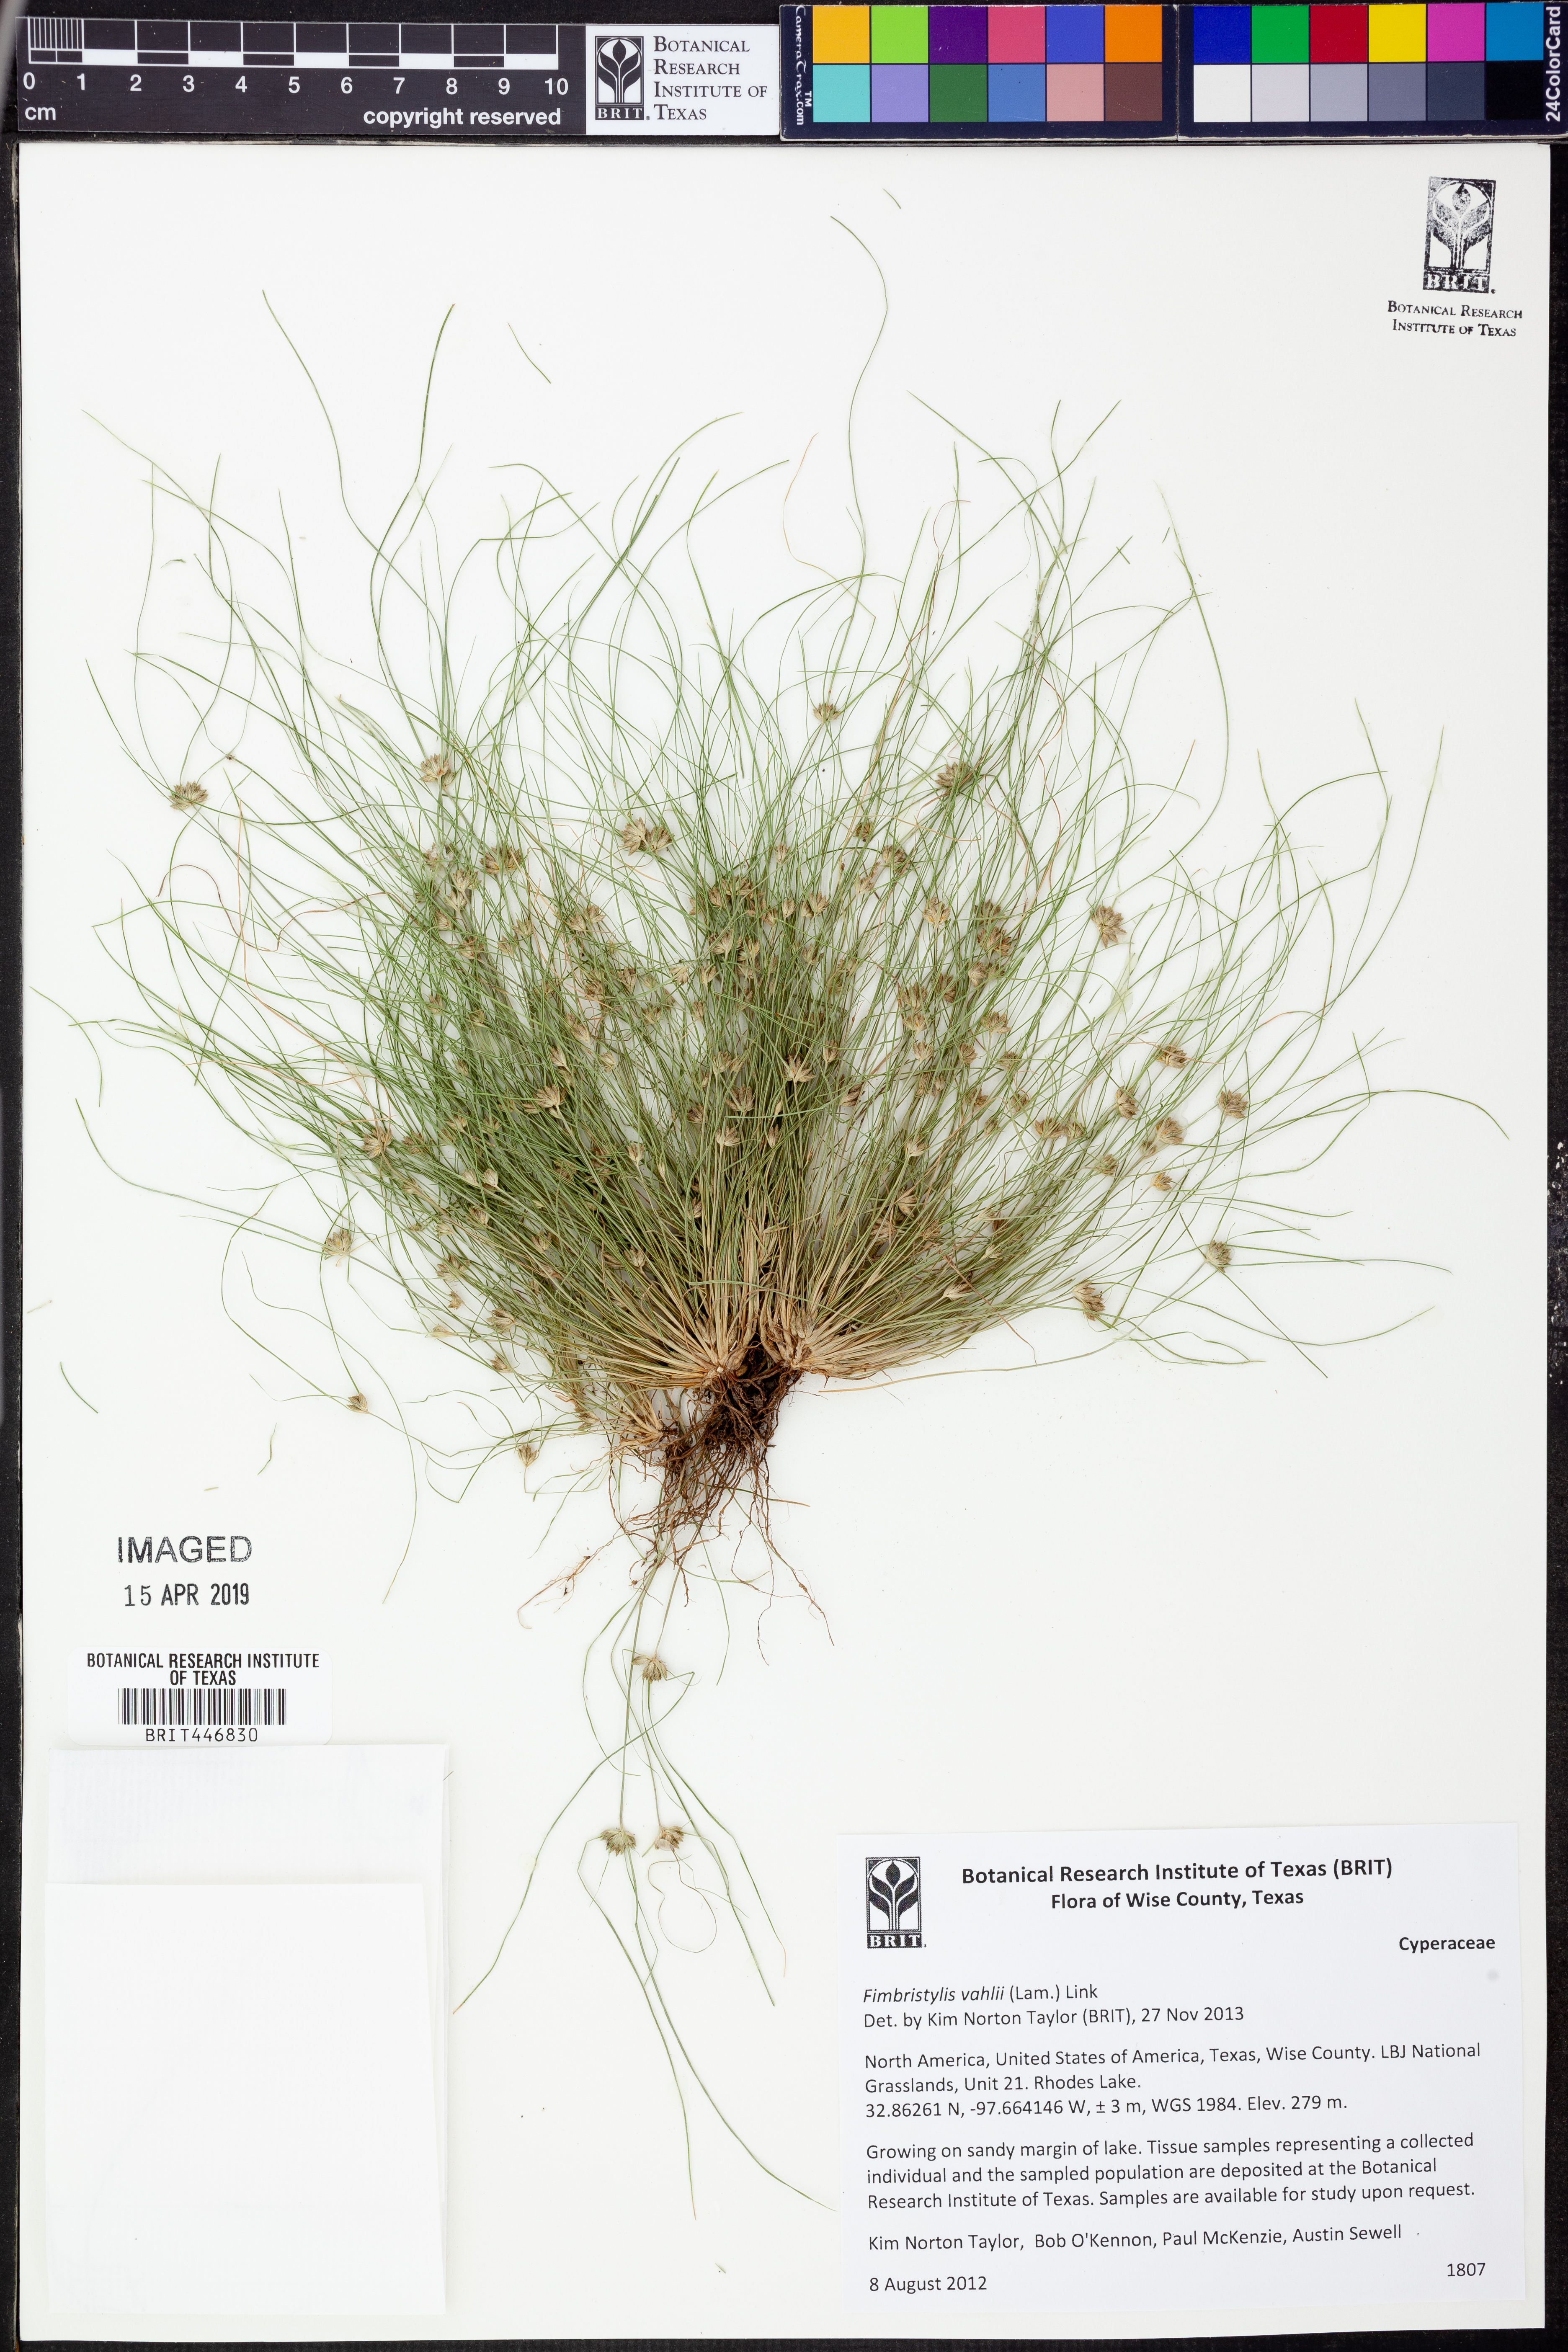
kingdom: Plantae
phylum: Tracheophyta
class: Liliopsida
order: Poales
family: Cyperaceae
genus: Fimbristylis
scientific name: Fimbristylis vahlii
